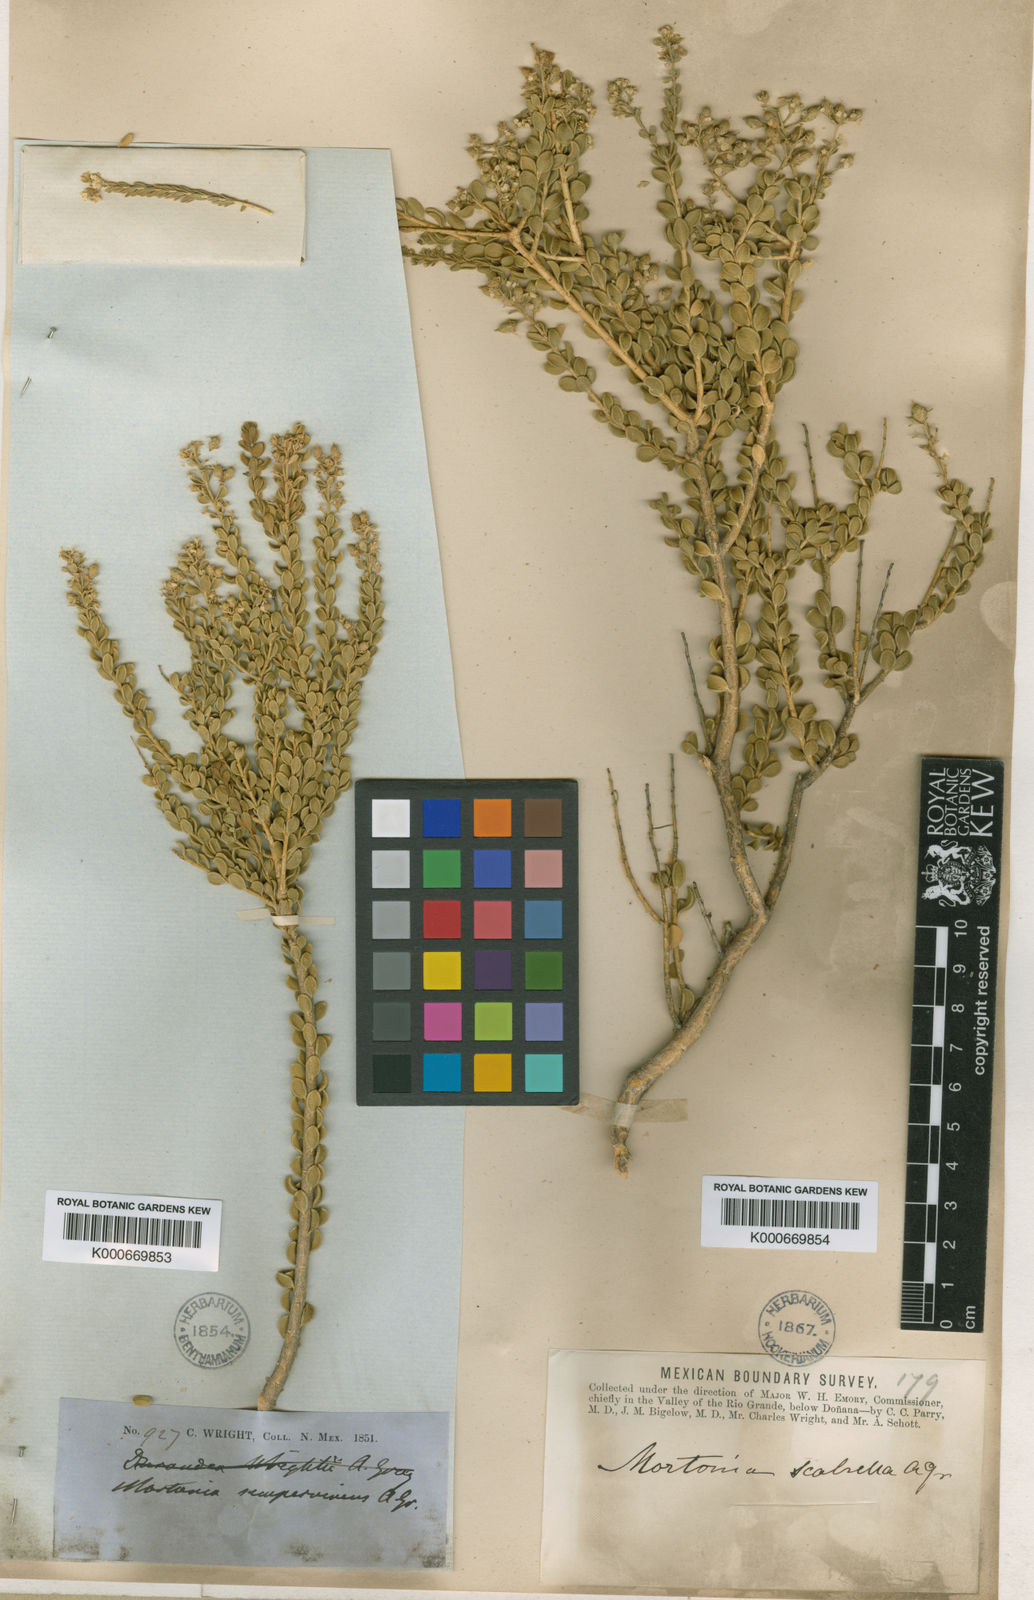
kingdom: Plantae
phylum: Tracheophyta
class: Magnoliopsida
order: Celastrales
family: Celastraceae
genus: Mortonia
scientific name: Mortonia sempervirens
